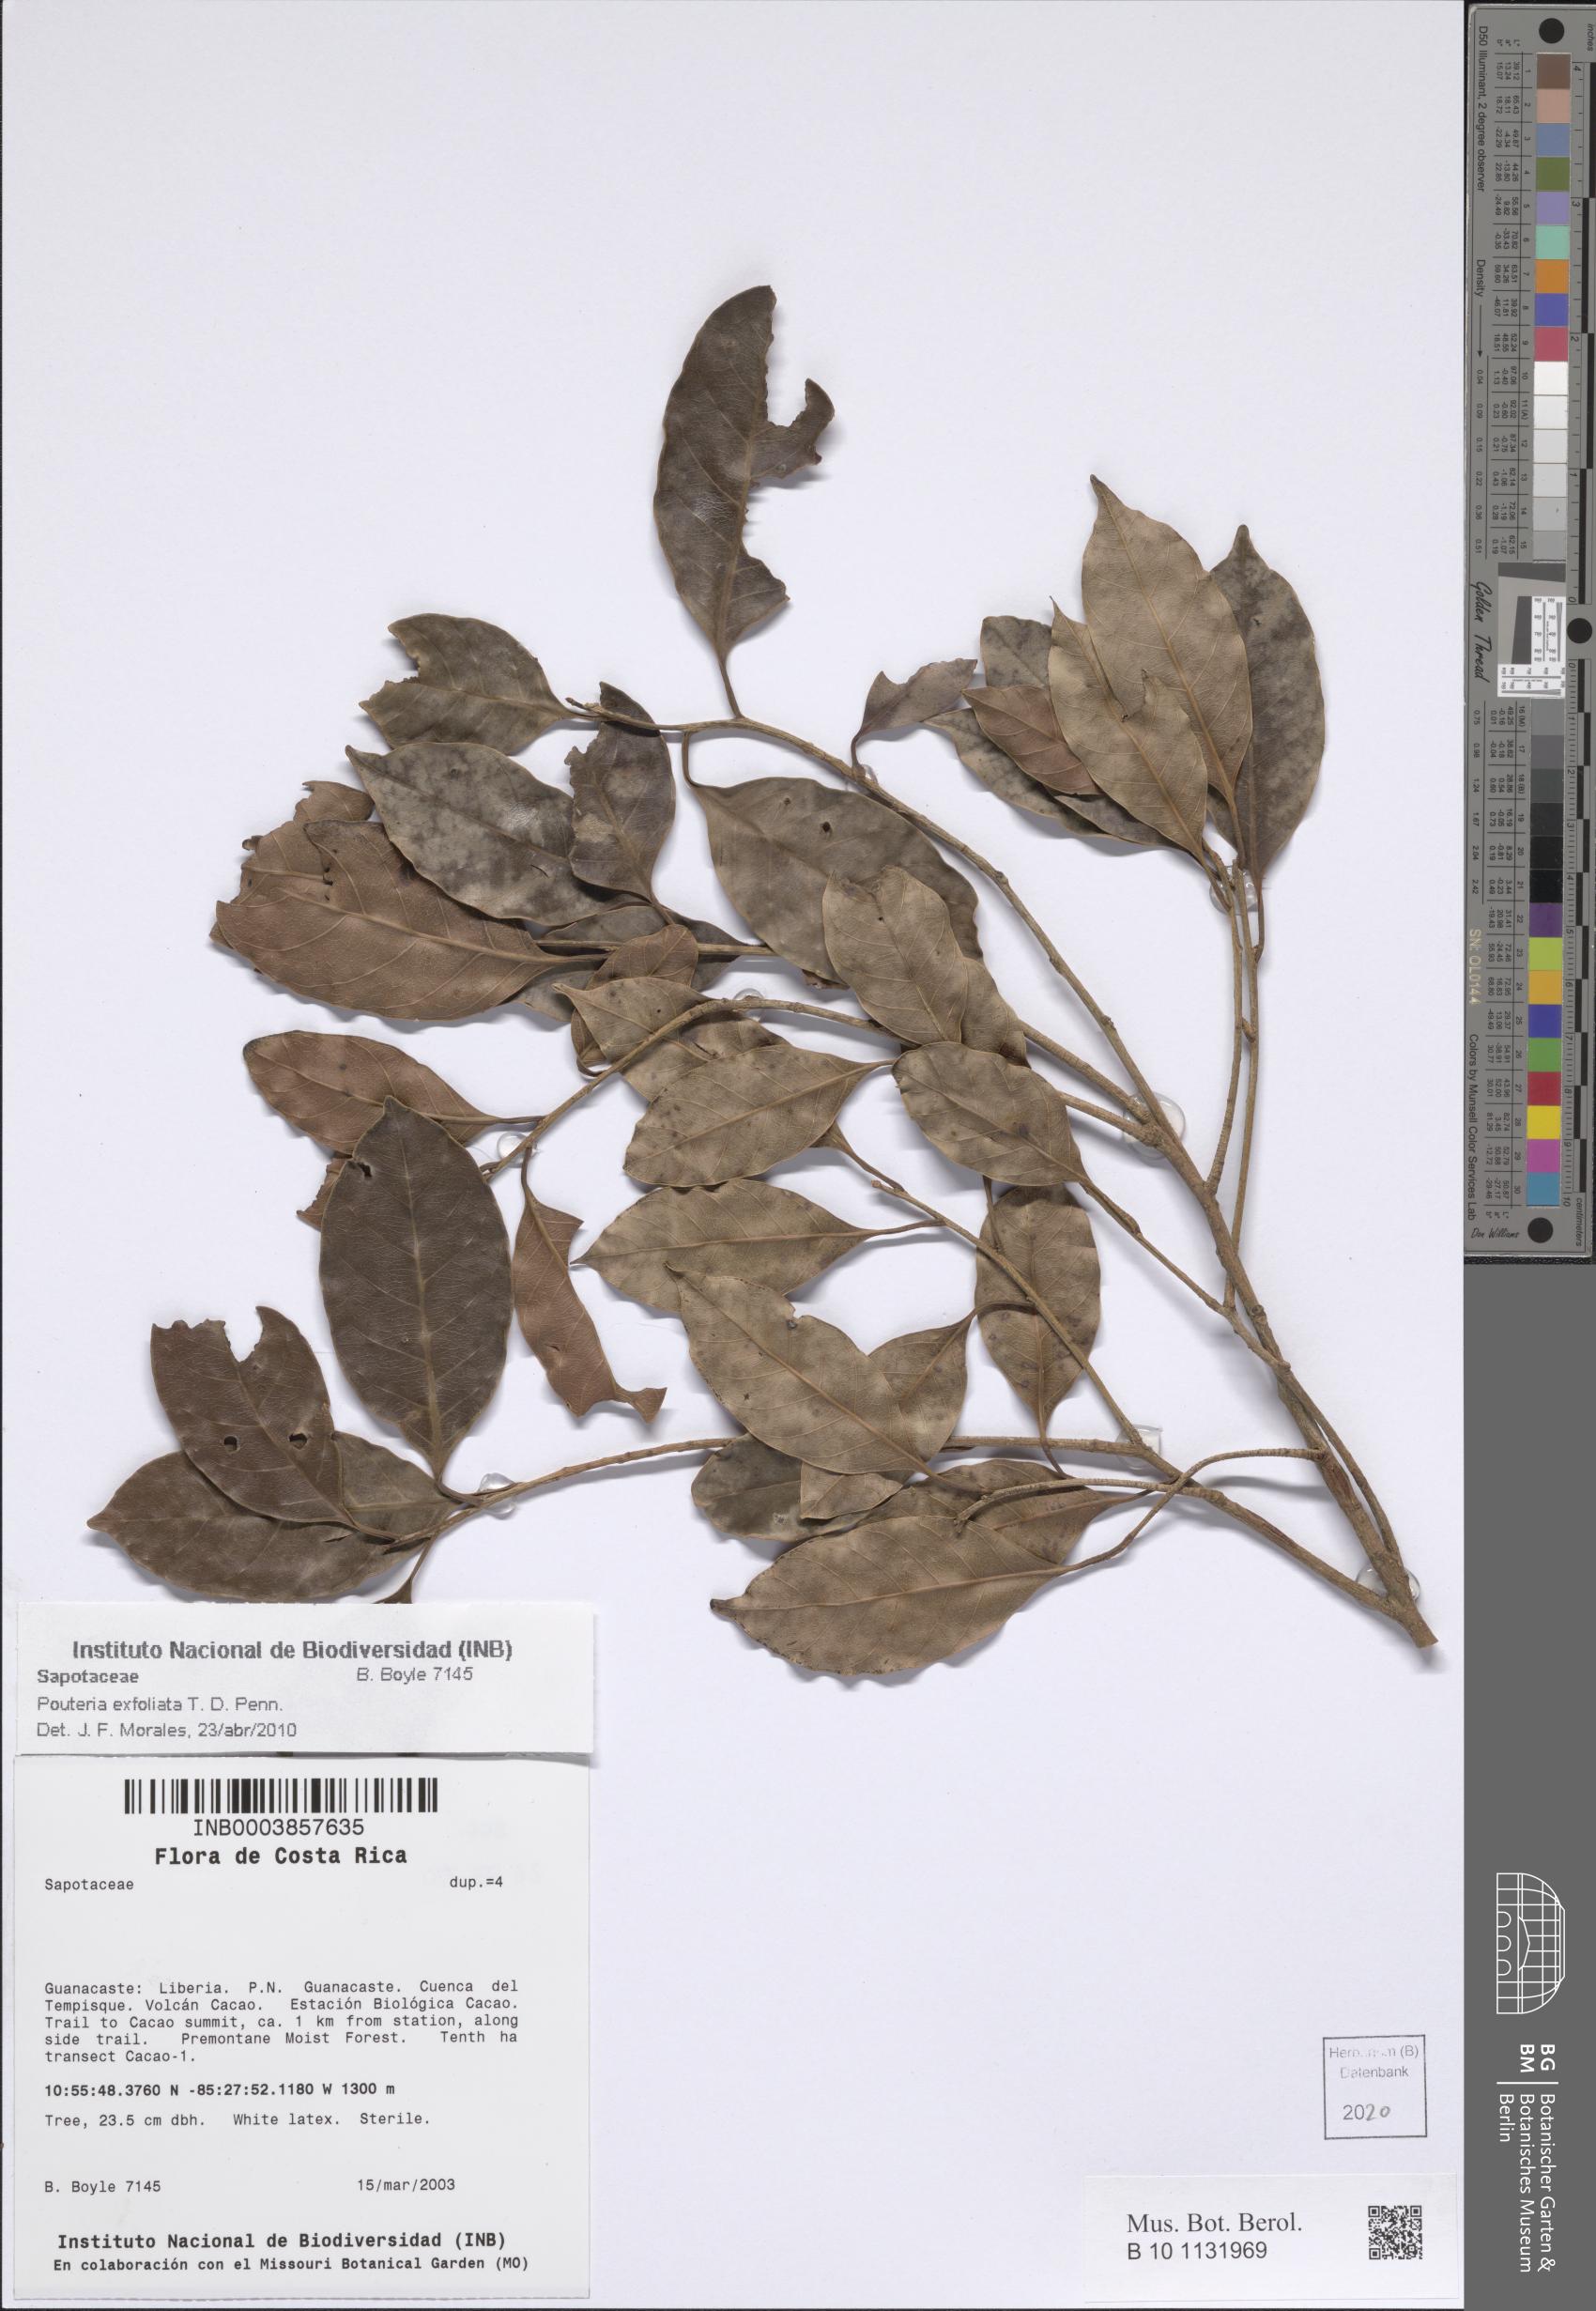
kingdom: Plantae
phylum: Tracheophyta
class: Magnoliopsida
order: Ericales
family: Sapotaceae
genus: Pouteria
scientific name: Pouteria exfoliata
